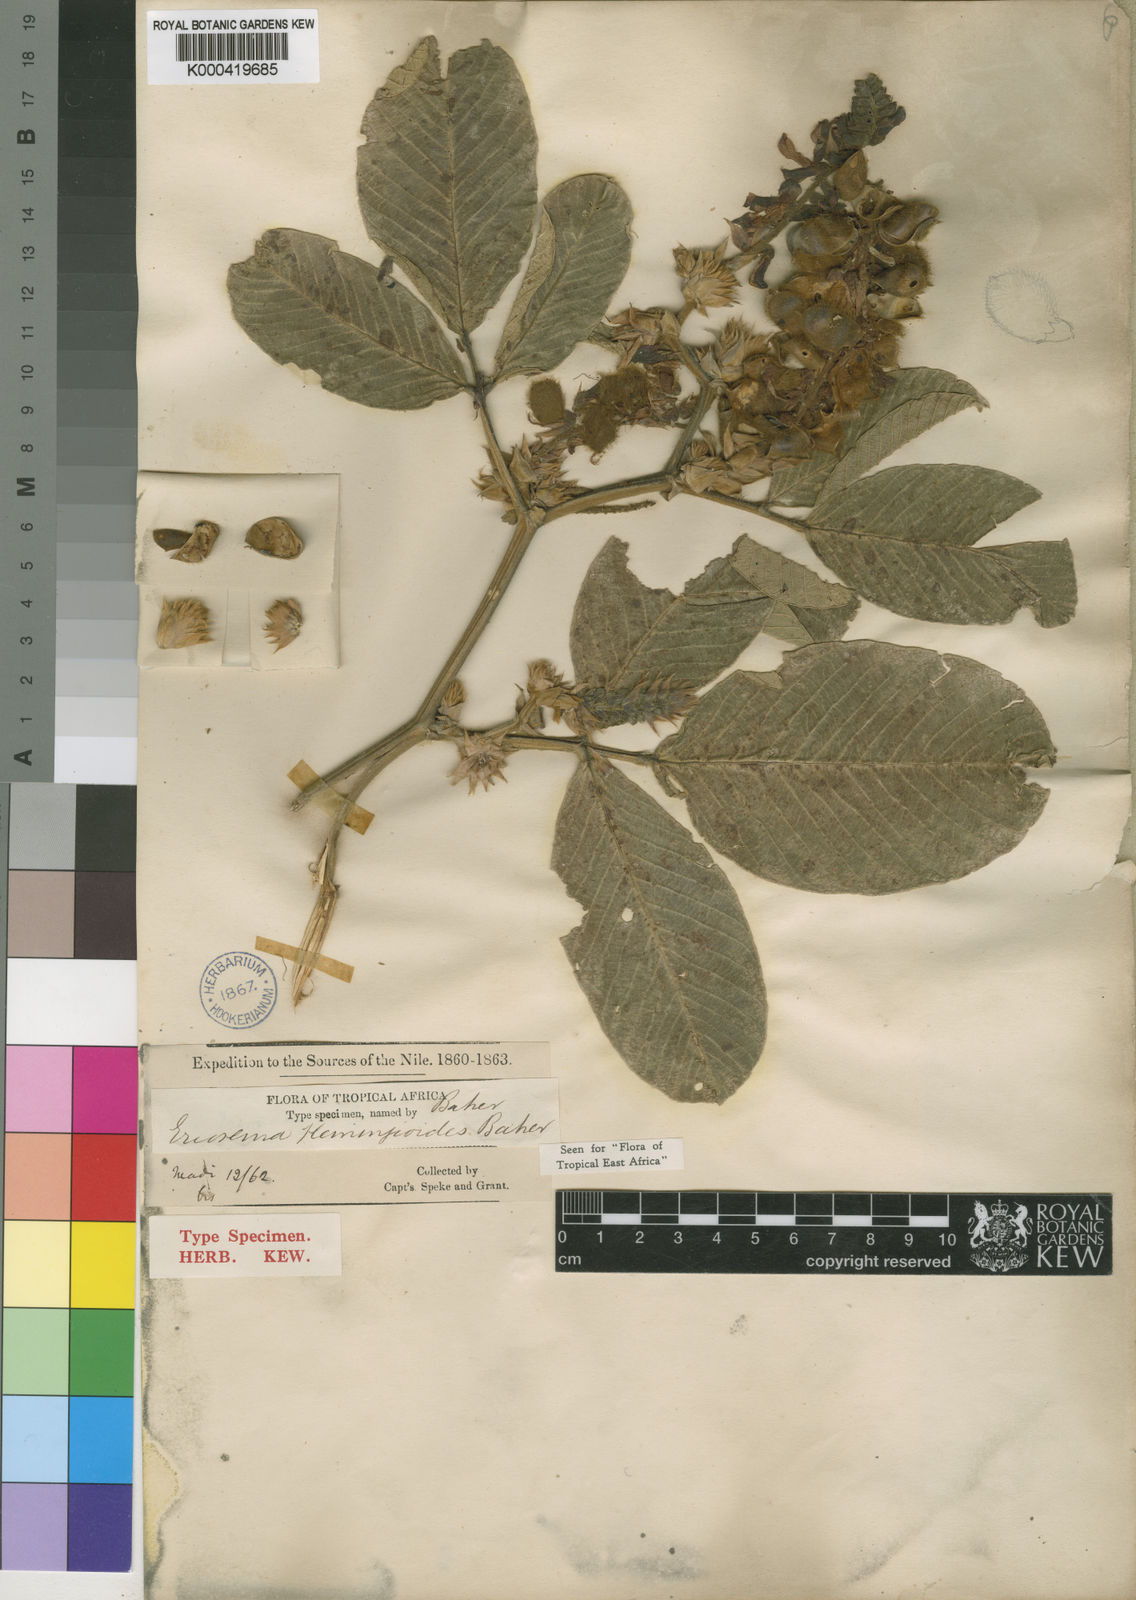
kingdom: Plantae
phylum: Tracheophyta
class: Magnoliopsida
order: Fabales
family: Fabaceae
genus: Eriosema
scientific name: Eriosema flemingioides
